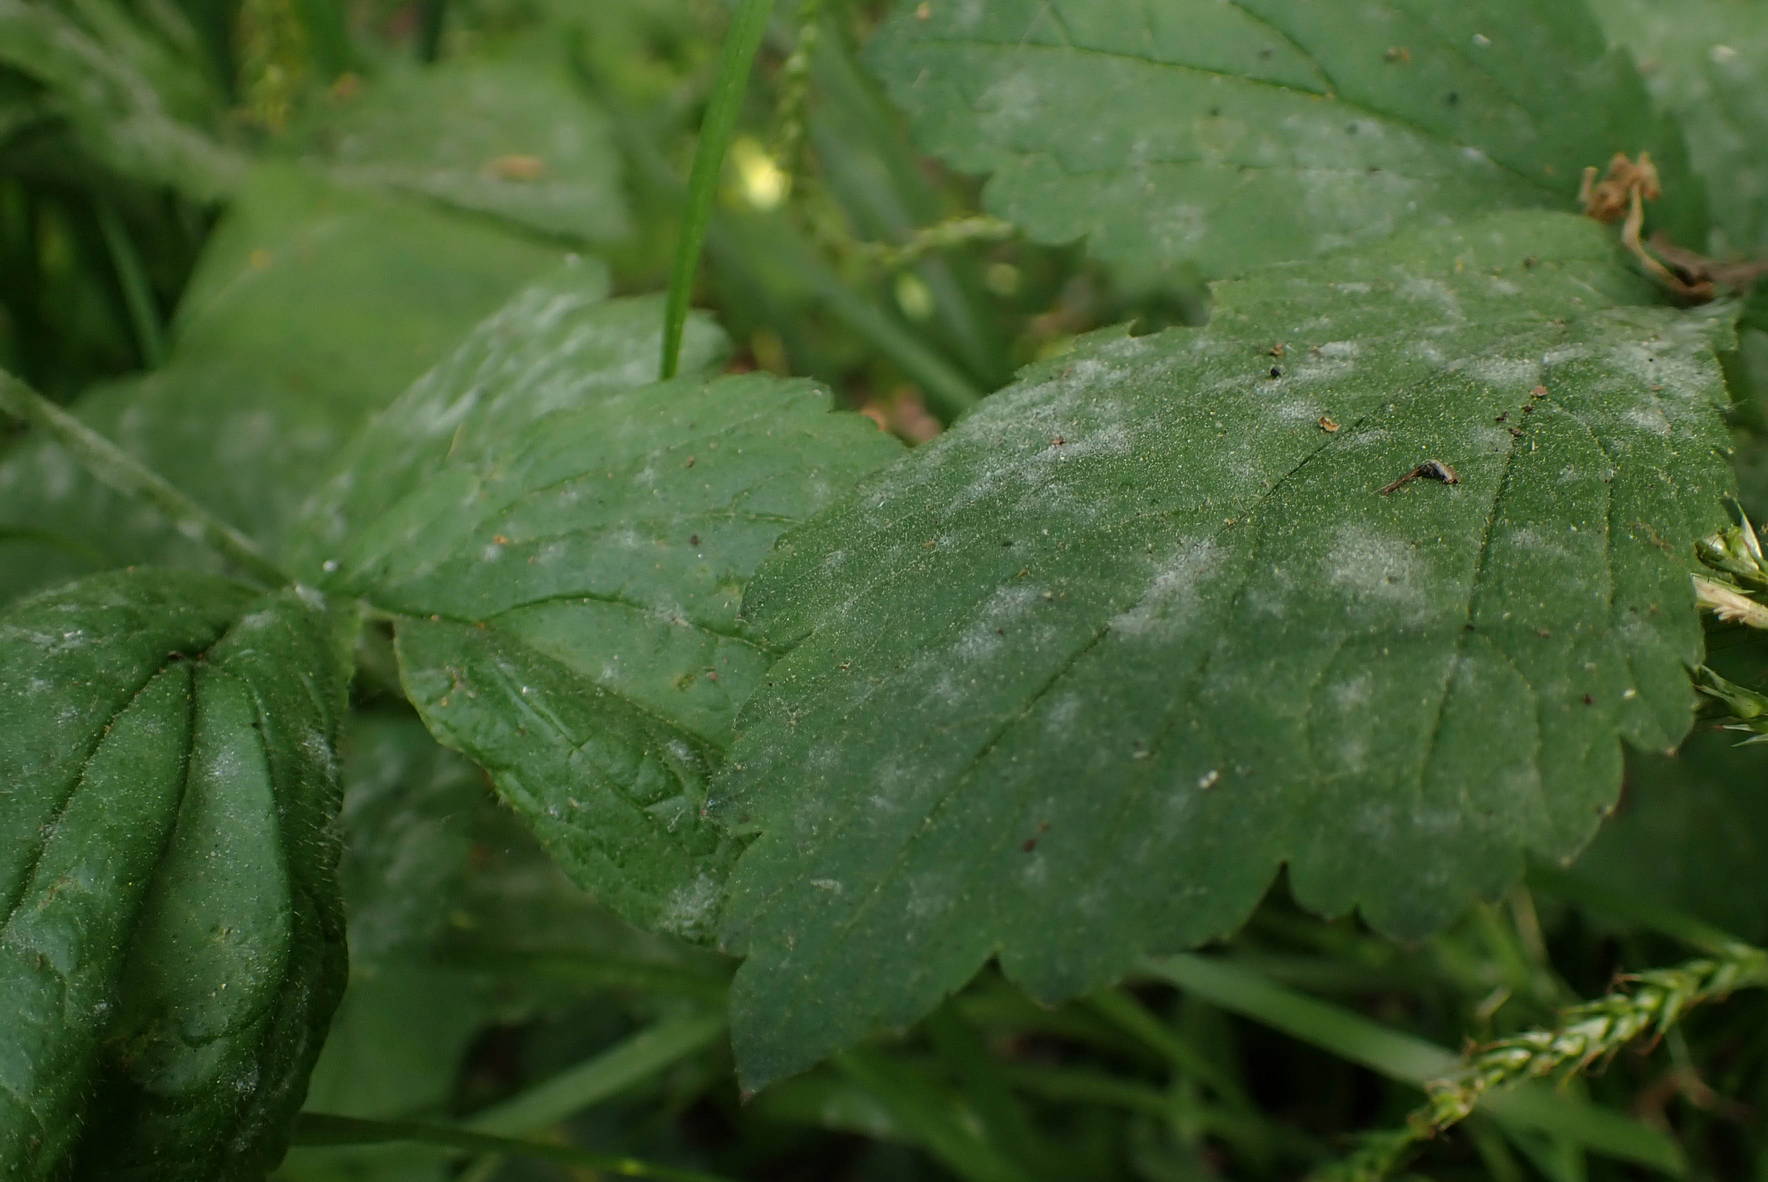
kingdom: Fungi
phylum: Ascomycota
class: Leotiomycetes
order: Helotiales
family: Erysiphaceae
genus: Podosphaera
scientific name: Podosphaera aphanis
